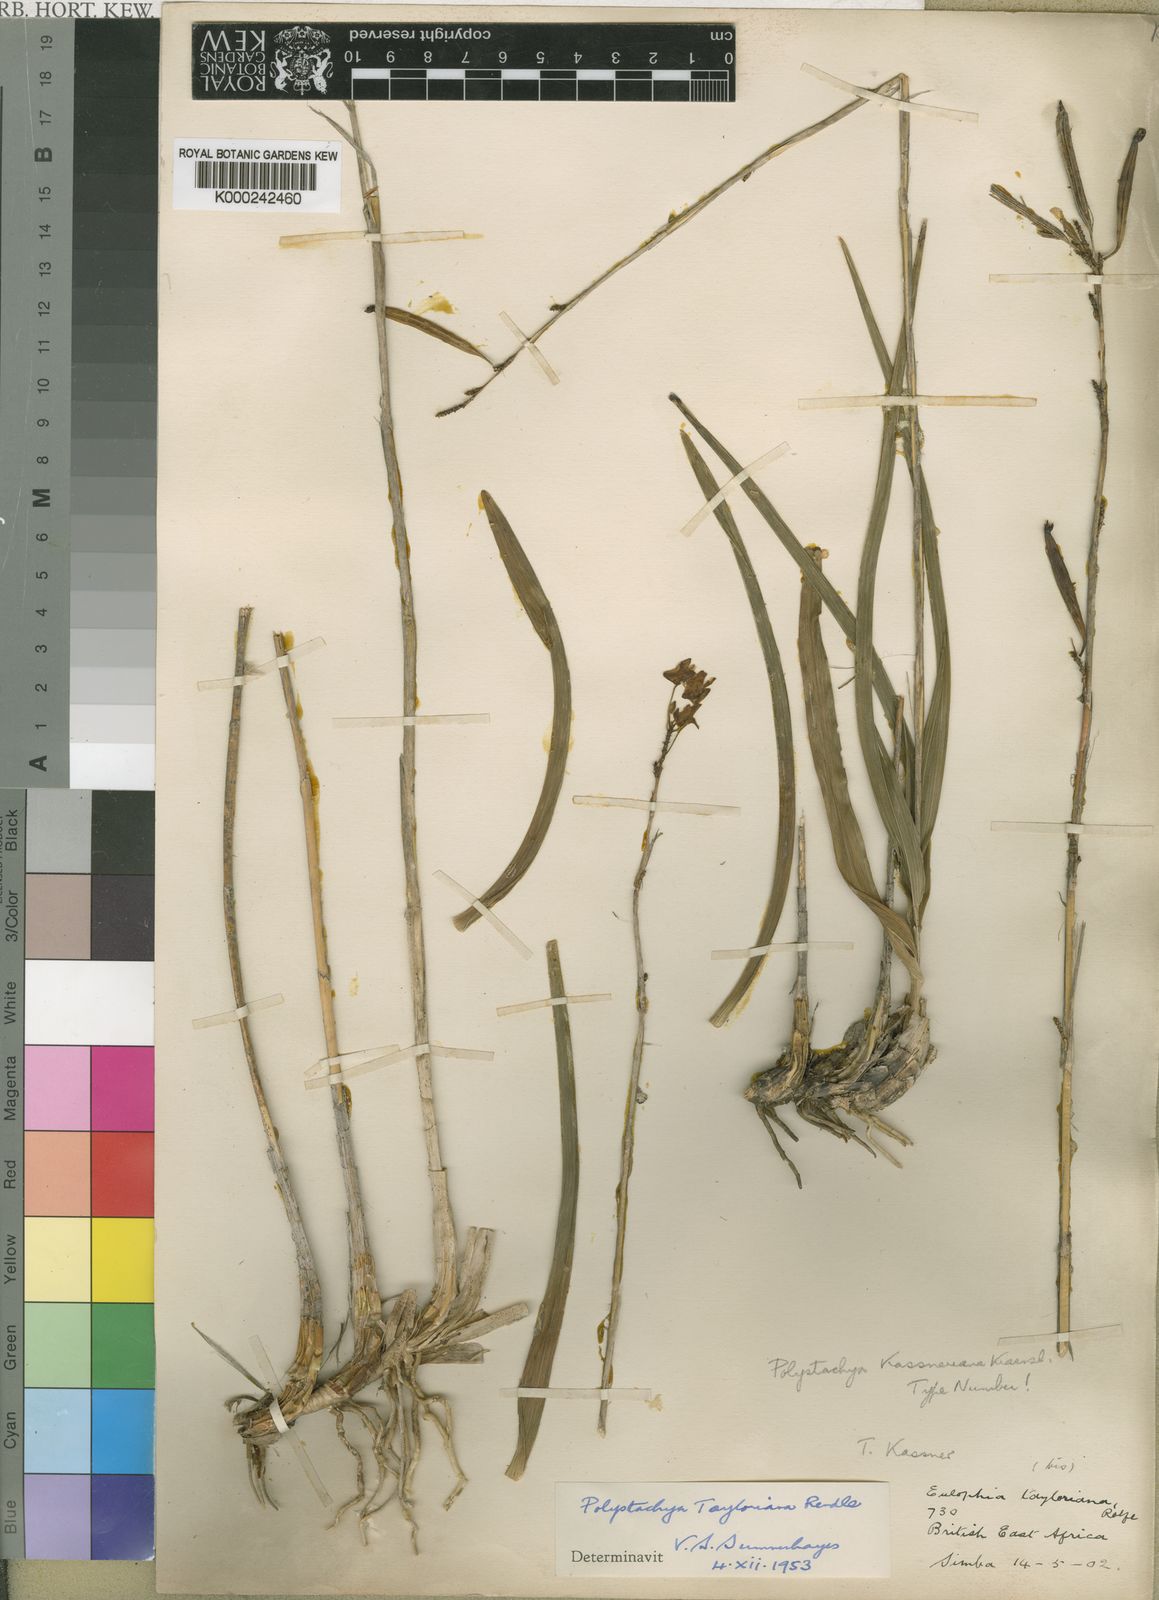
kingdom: Plantae
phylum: Tracheophyta
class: Liliopsida
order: Asparagales
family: Orchidaceae
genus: Polystachya
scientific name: Polystachya dendrobiiflora
